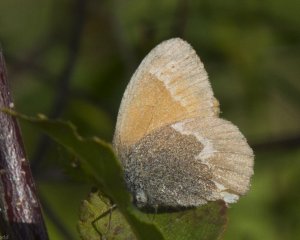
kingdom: Animalia
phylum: Arthropoda
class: Insecta
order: Lepidoptera
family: Nymphalidae
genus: Coenonympha
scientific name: Coenonympha tullia
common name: Large Heath
